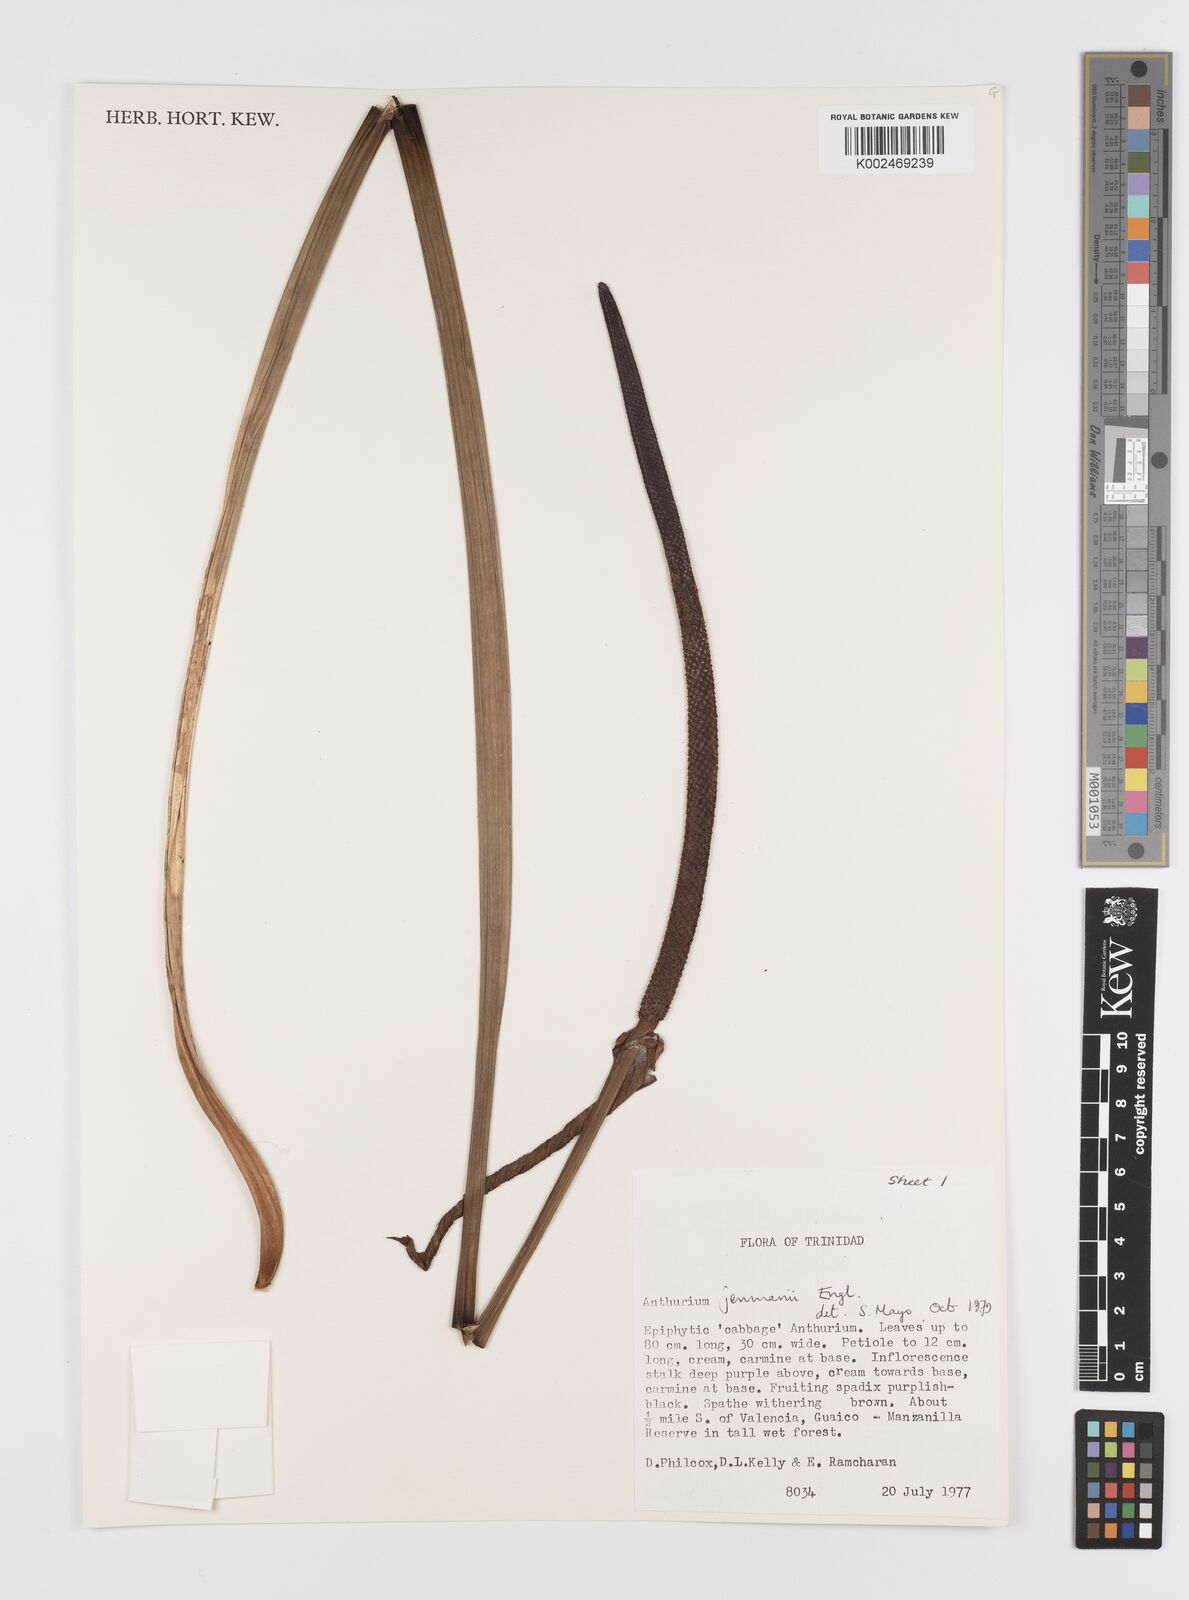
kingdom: Plantae
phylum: Tracheophyta
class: Liliopsida
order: Alismatales
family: Araceae
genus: Anthurium
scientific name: Anthurium jenmanii
